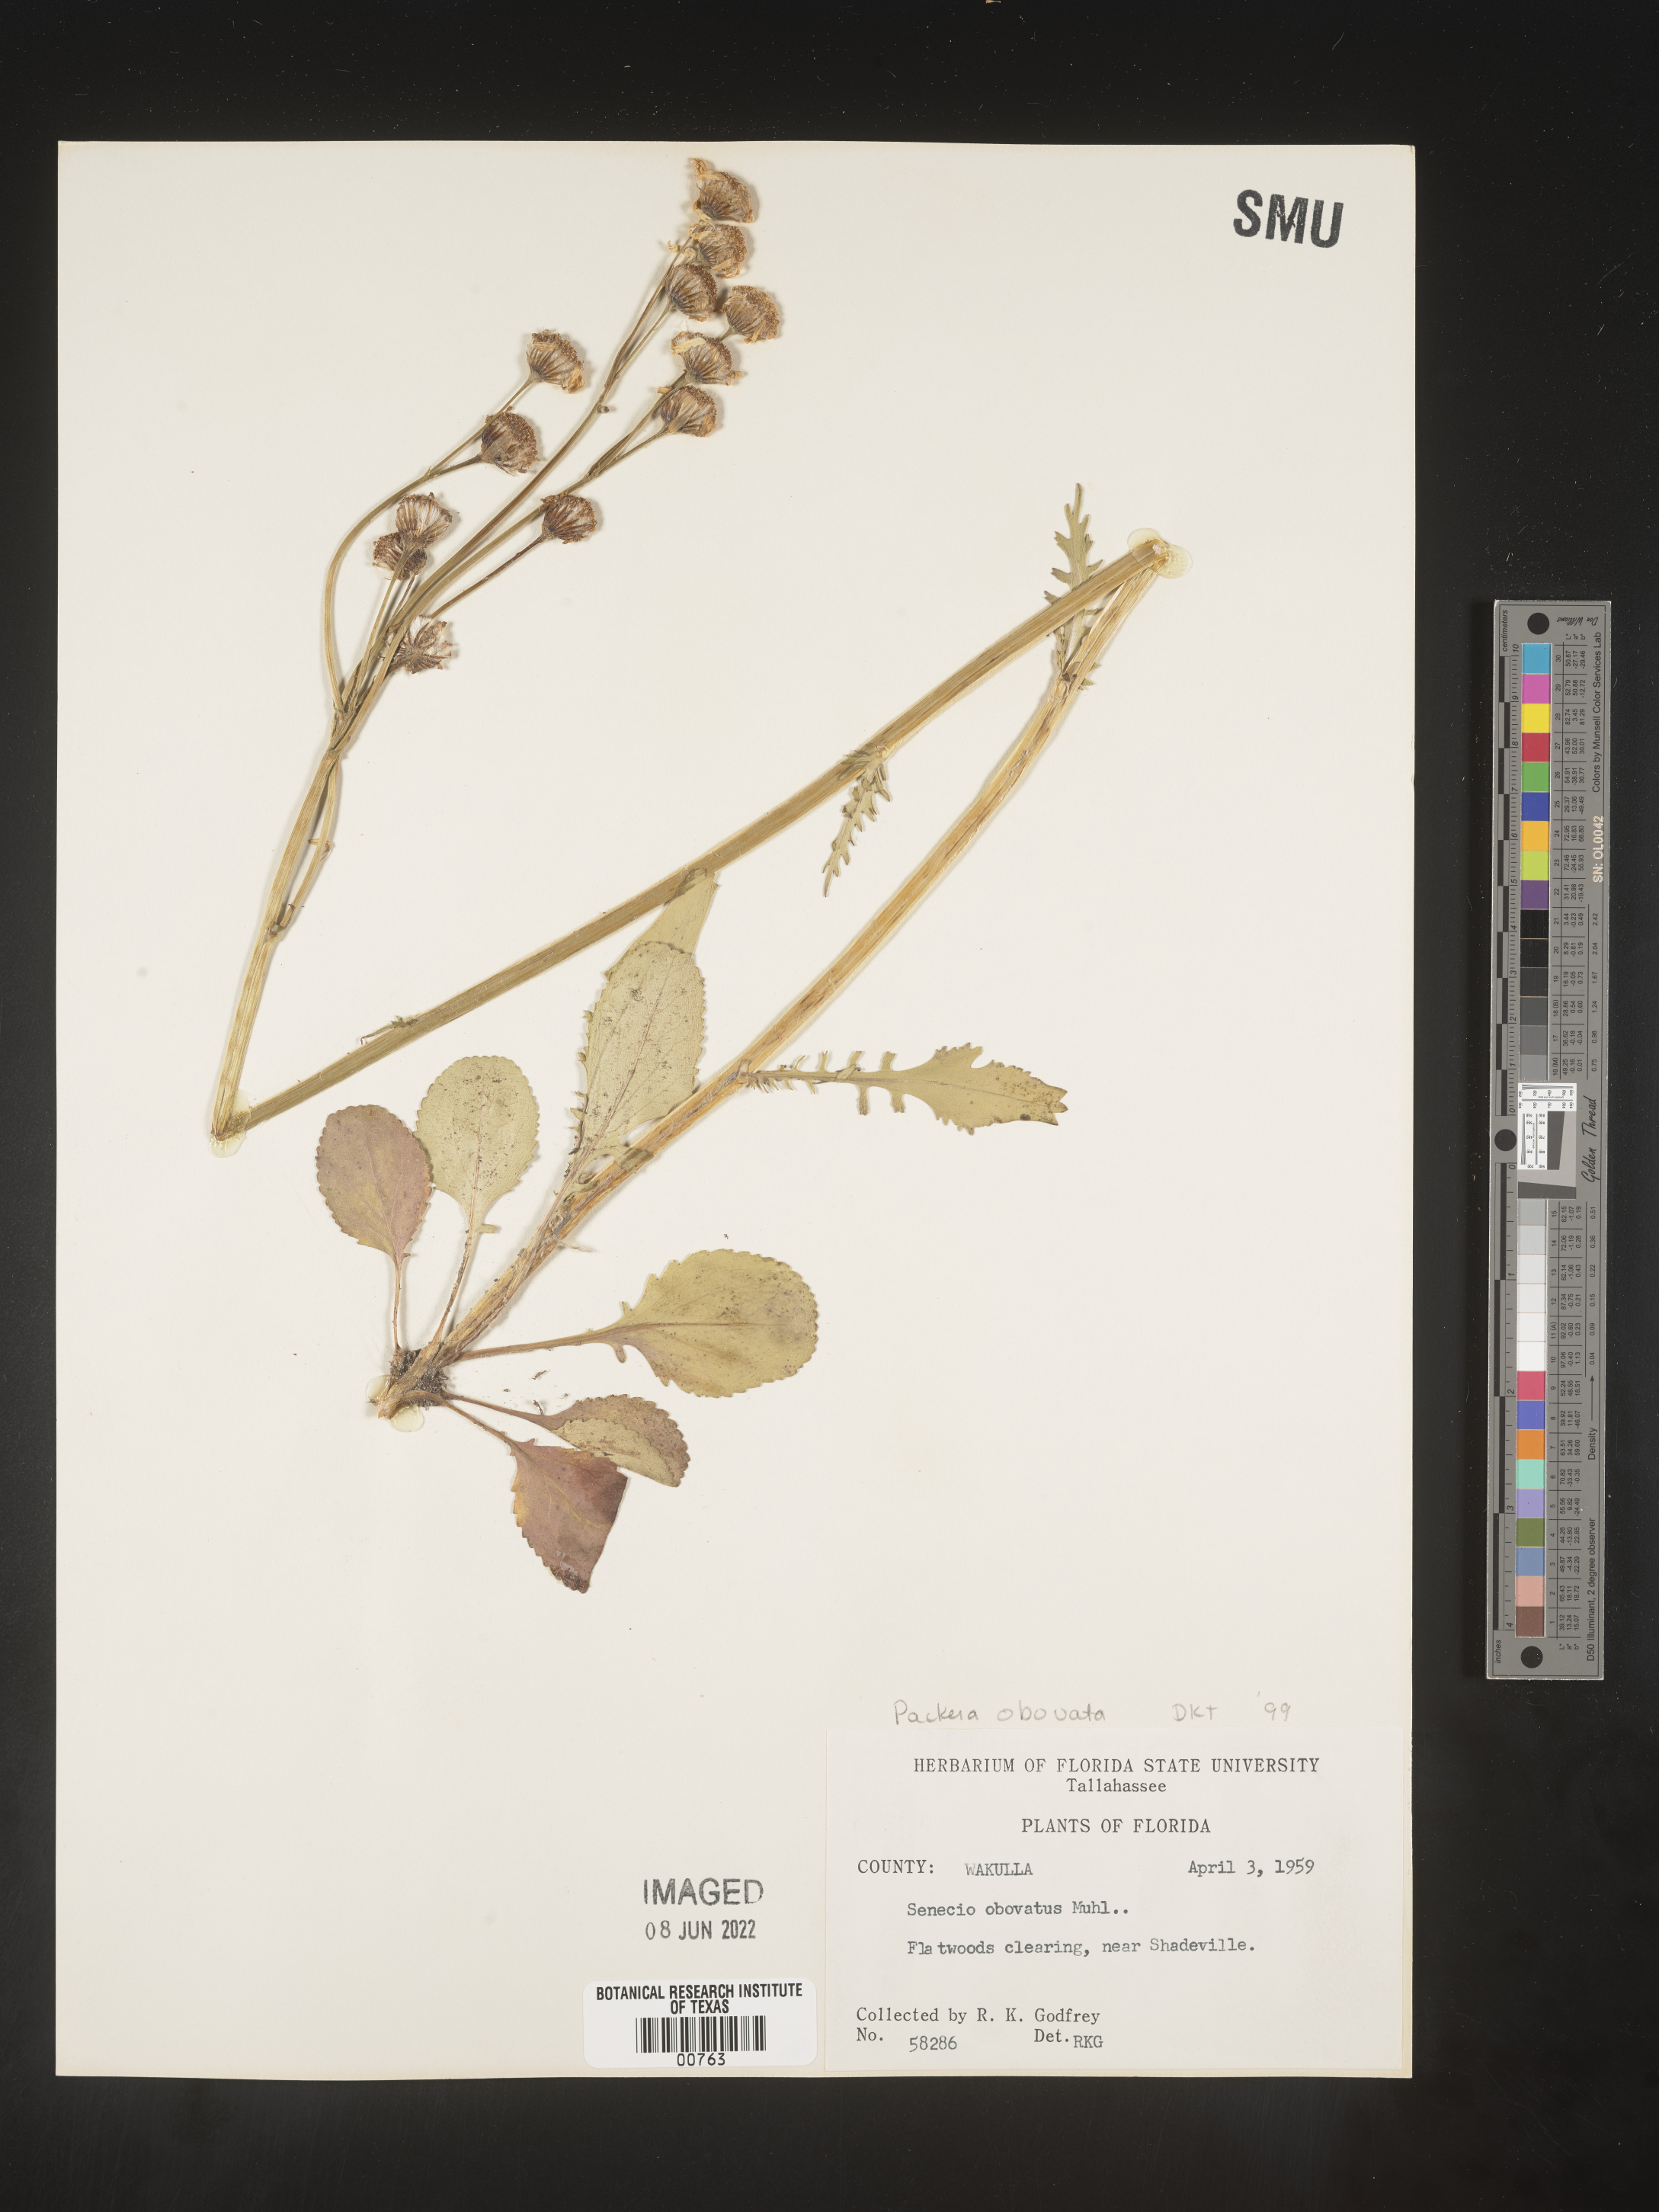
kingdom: Plantae
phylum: Tracheophyta
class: Magnoliopsida
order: Asterales
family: Asteraceae
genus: Packera
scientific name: Packera obovata
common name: Round-leaf ragwort
